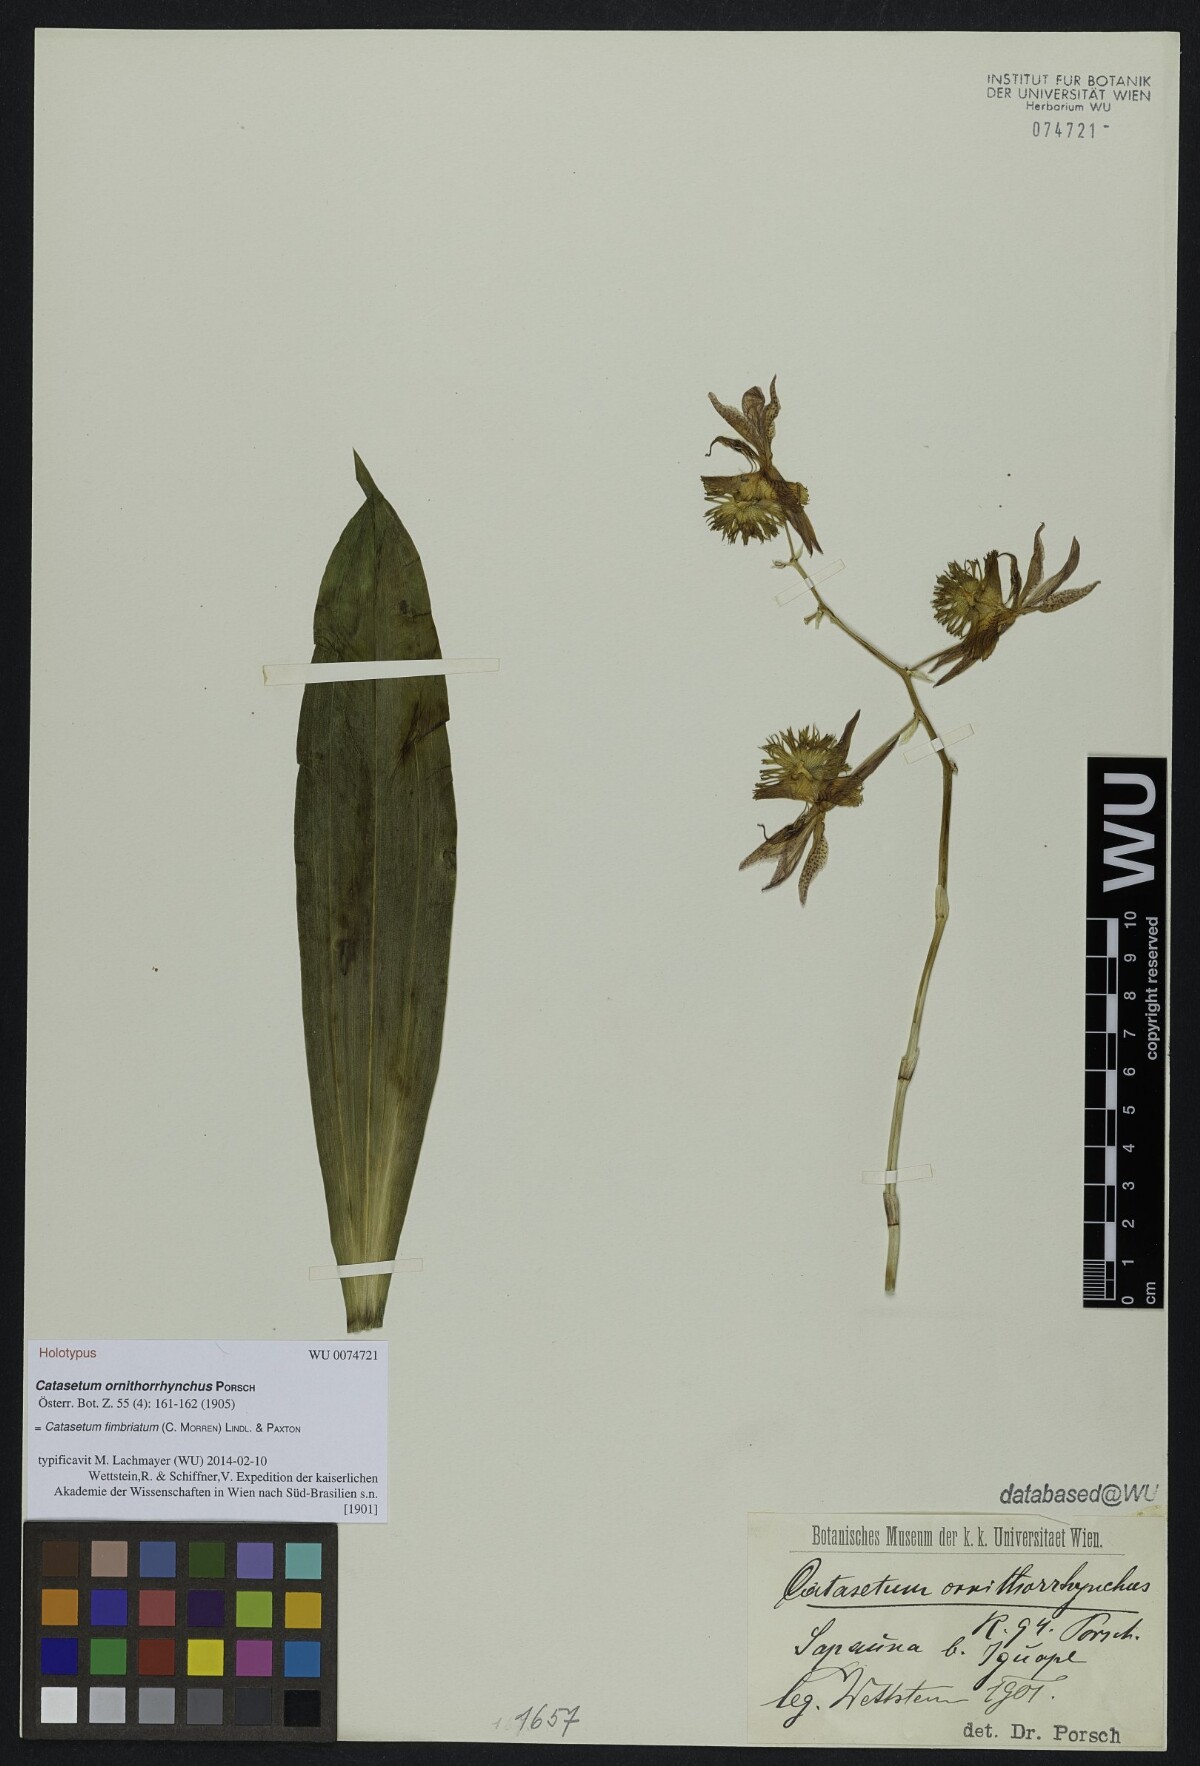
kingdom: Plantae
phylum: Tracheophyta
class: Liliopsida
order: Asparagales
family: Orchidaceae
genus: Catasetum
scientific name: Catasetum fimbriatum
